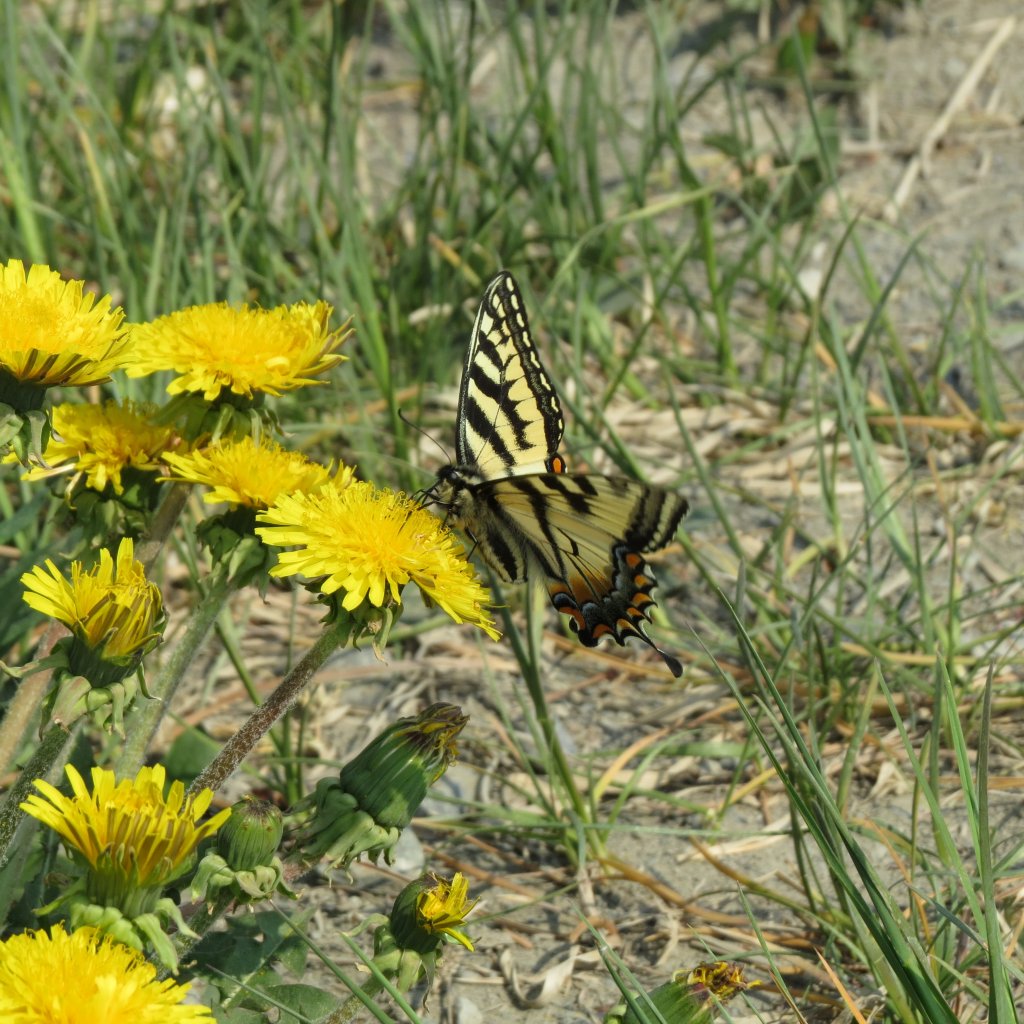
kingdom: Animalia
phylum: Arthropoda
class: Insecta
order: Lepidoptera
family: Papilionidae
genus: Pterourus
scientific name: Pterourus canadensis
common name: Canadian Tiger Swallowtail
